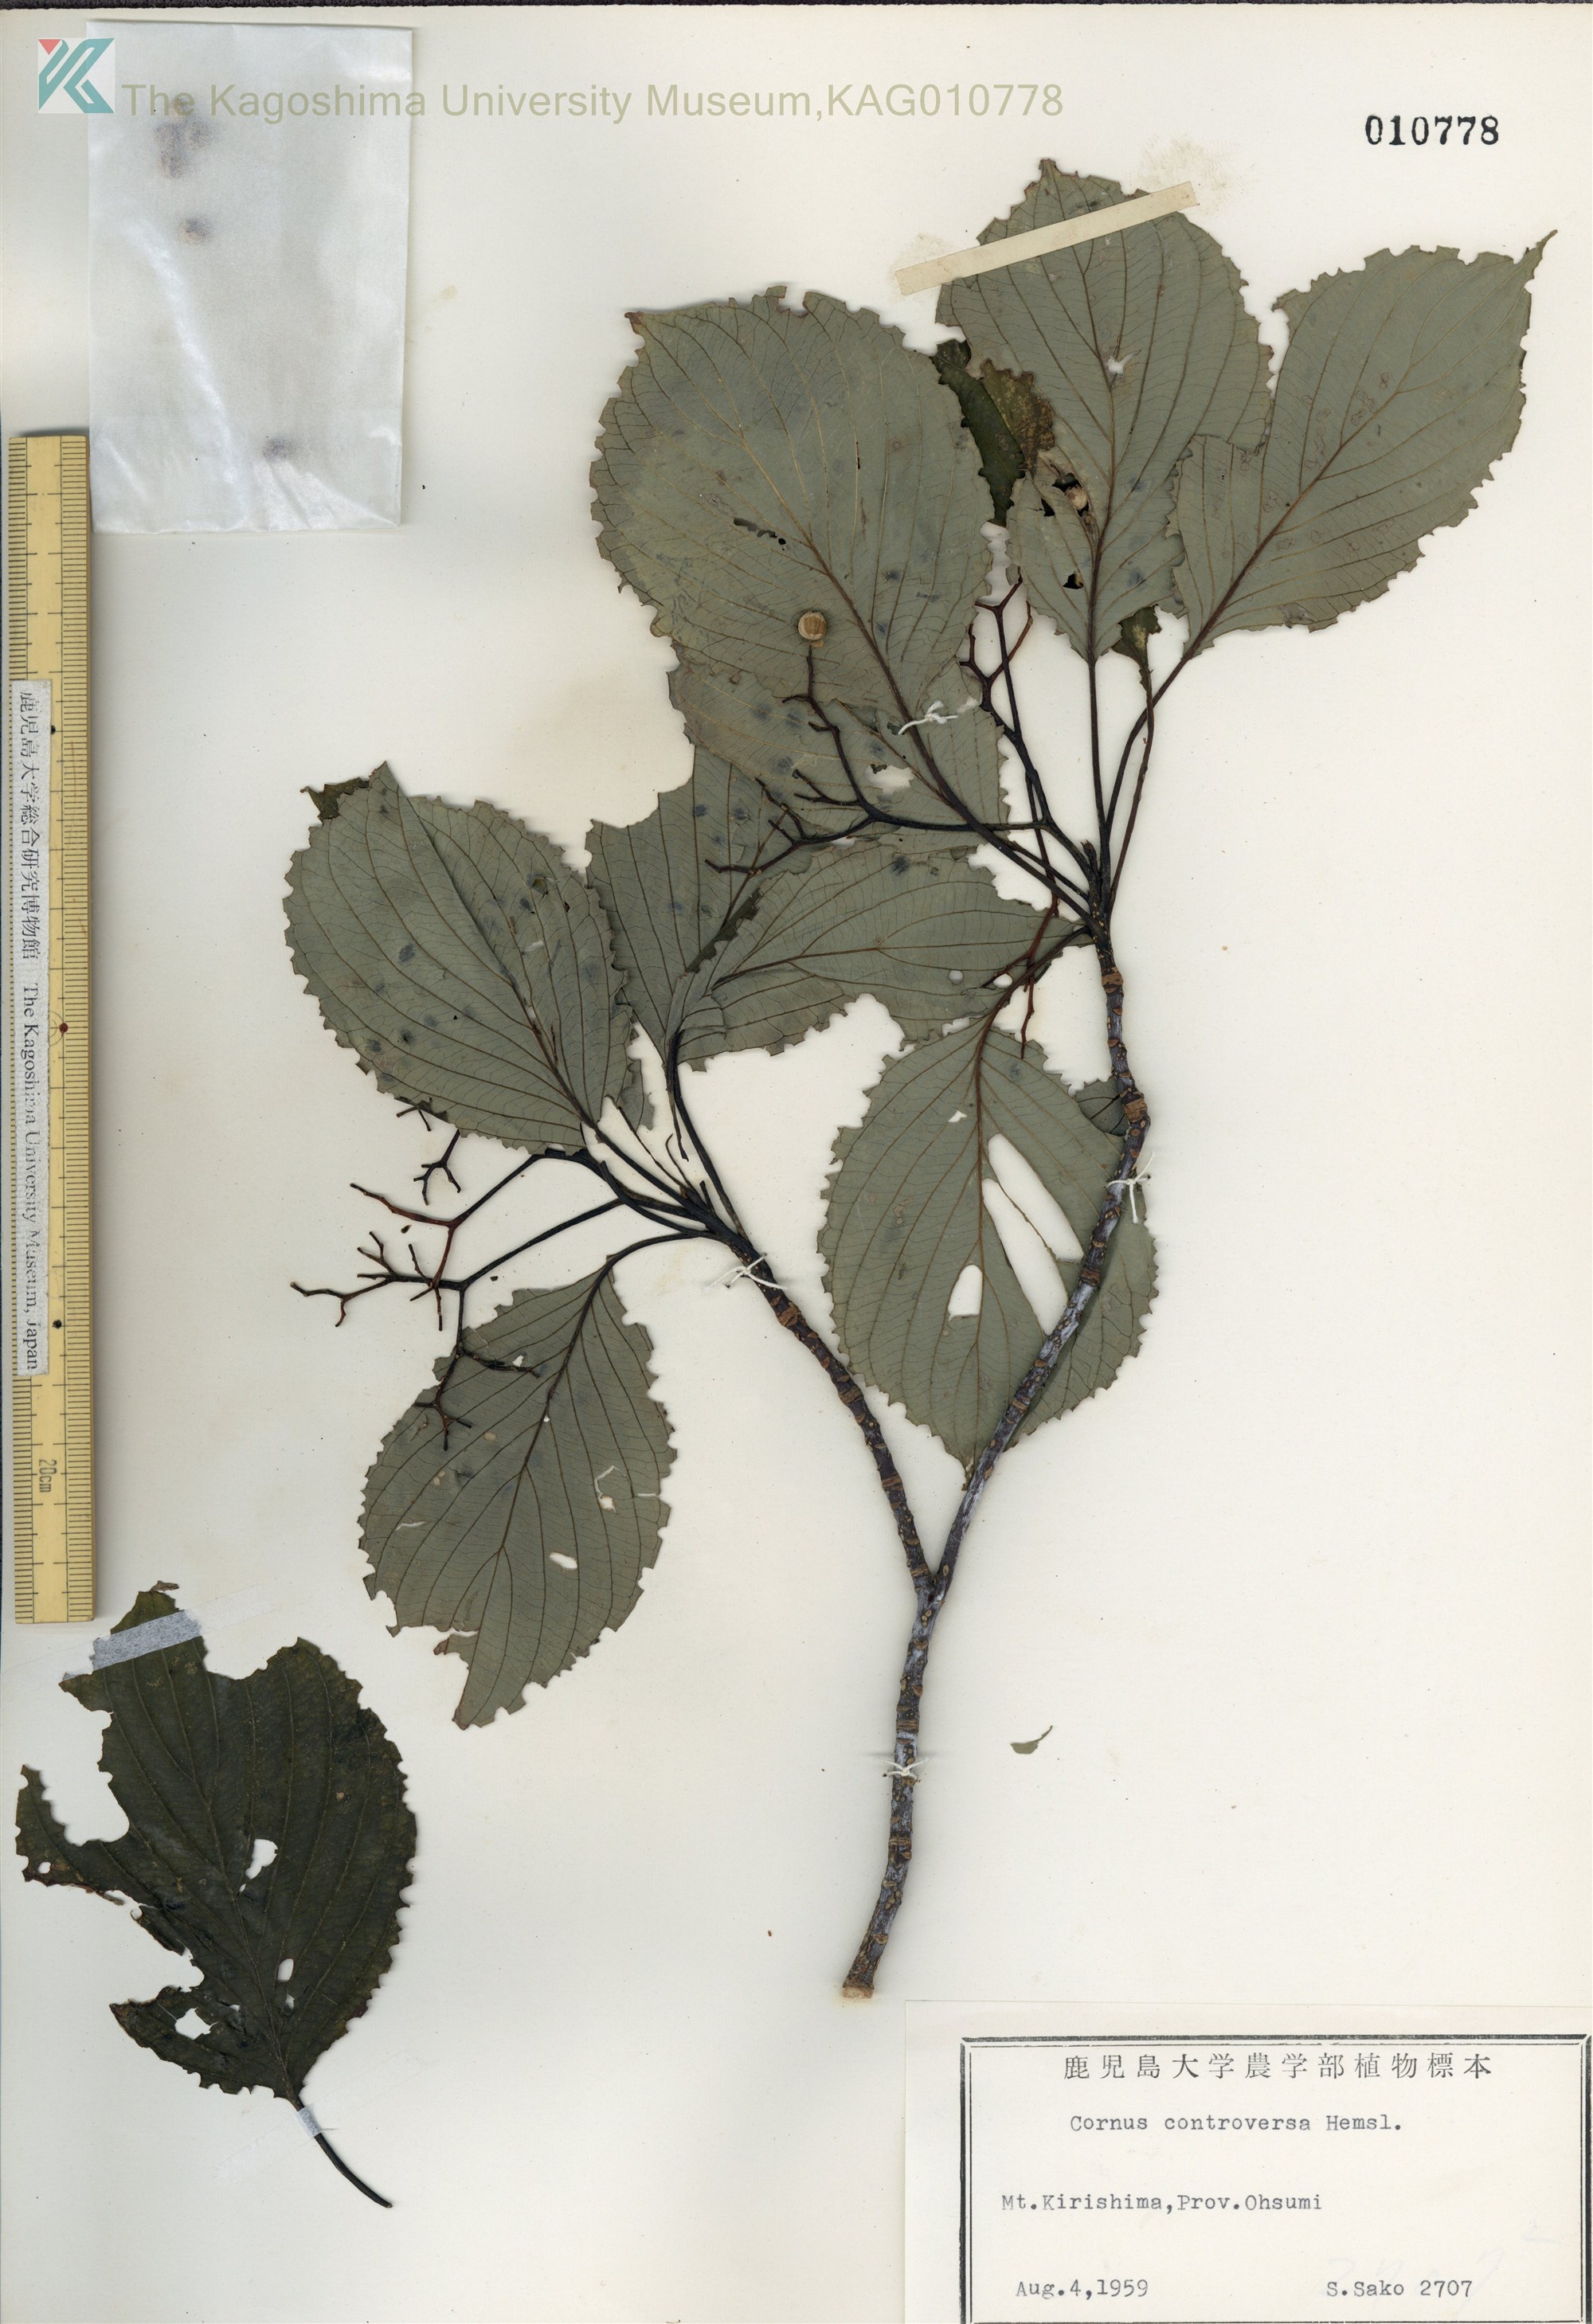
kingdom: Plantae
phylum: Tracheophyta
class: Magnoliopsida
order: Cornales
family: Cornaceae
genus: Cornus
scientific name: Cornus controversa
